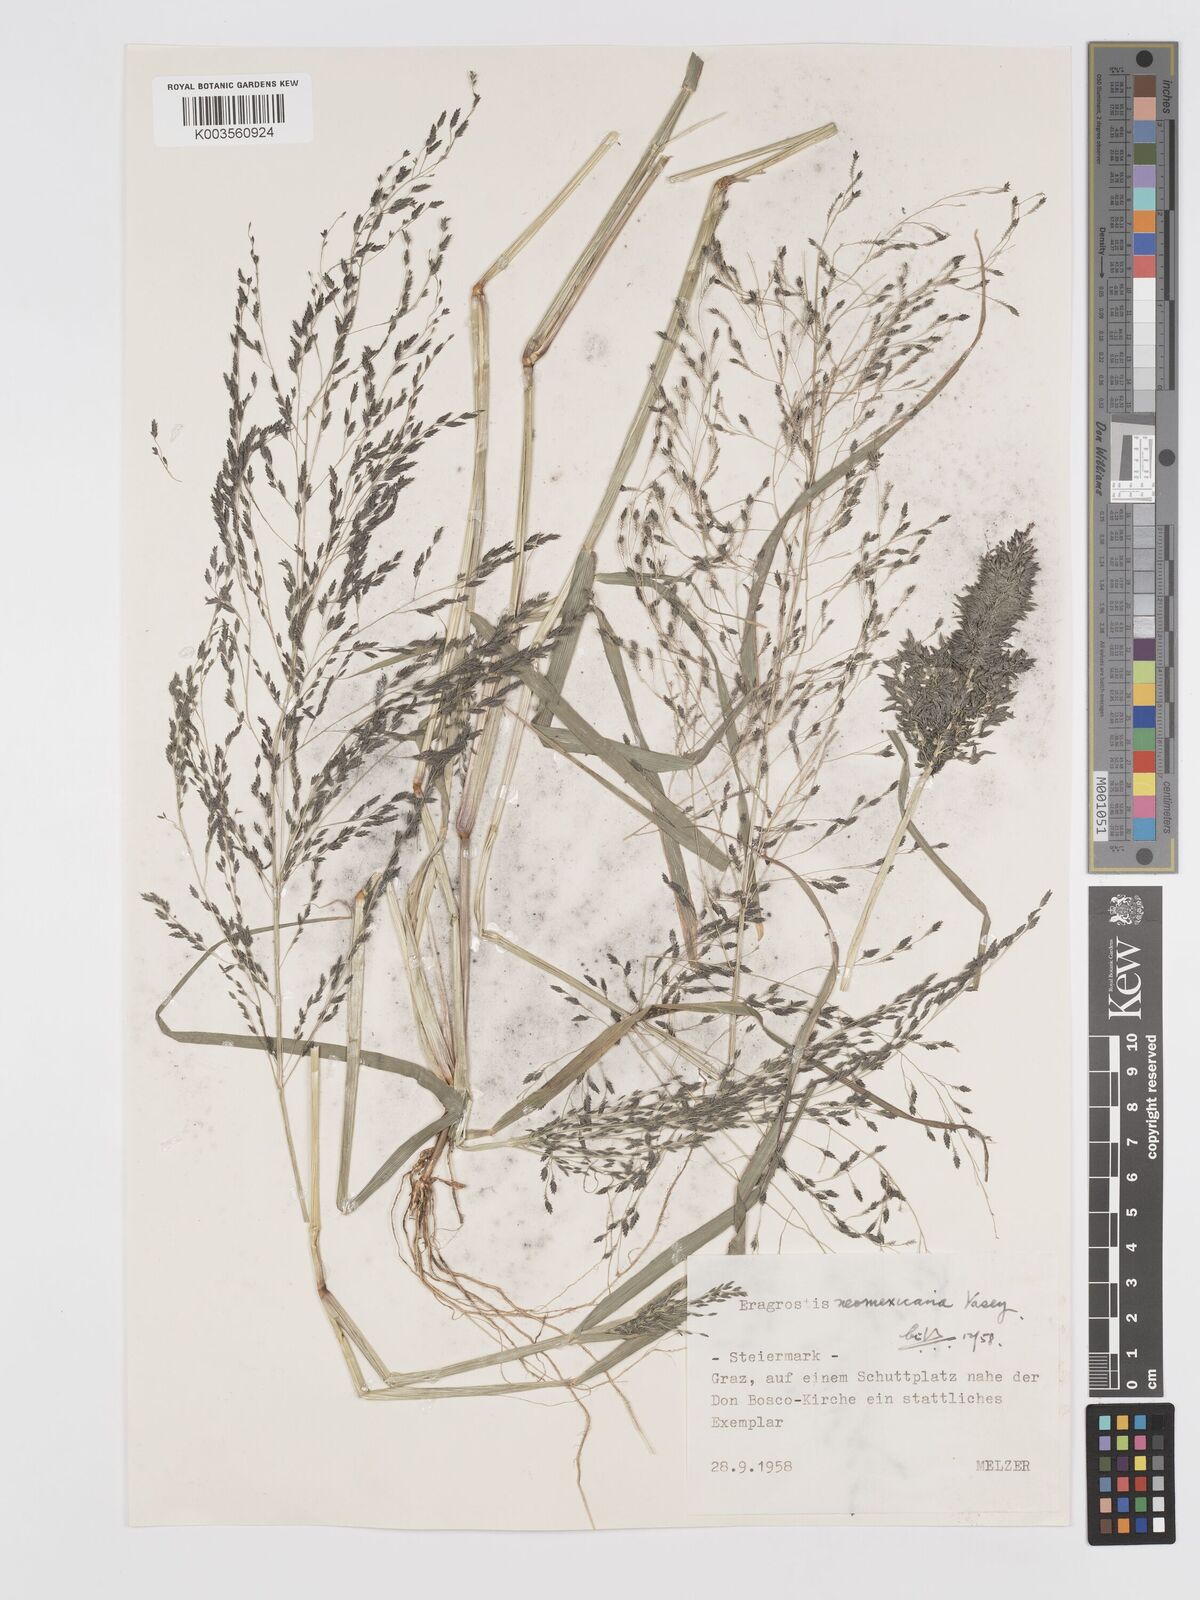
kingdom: Plantae
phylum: Tracheophyta
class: Liliopsida
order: Poales
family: Poaceae
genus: Eragrostis
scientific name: Eragrostis mexicana
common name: Mexican love grass
